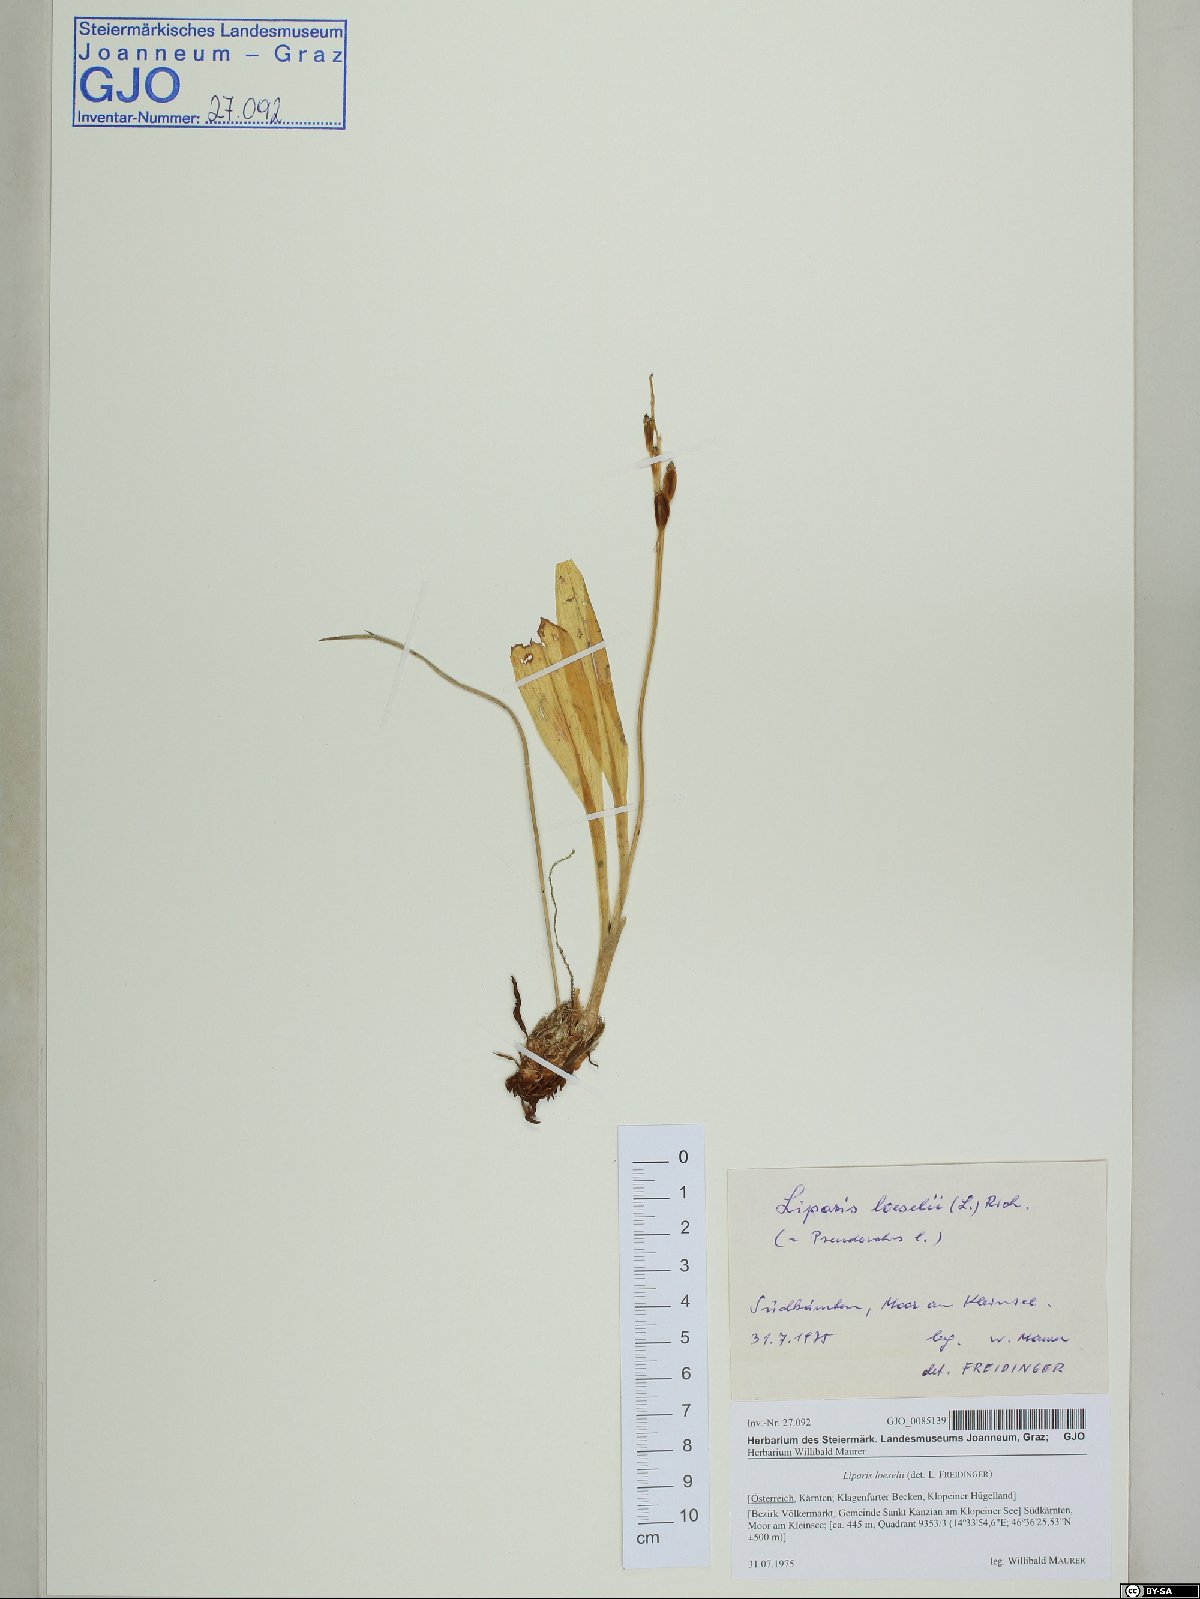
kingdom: Animalia
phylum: Arthropoda
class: Insecta
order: Coleoptera
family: Curculionidae
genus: Liparis
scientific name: Liparis loeselii
